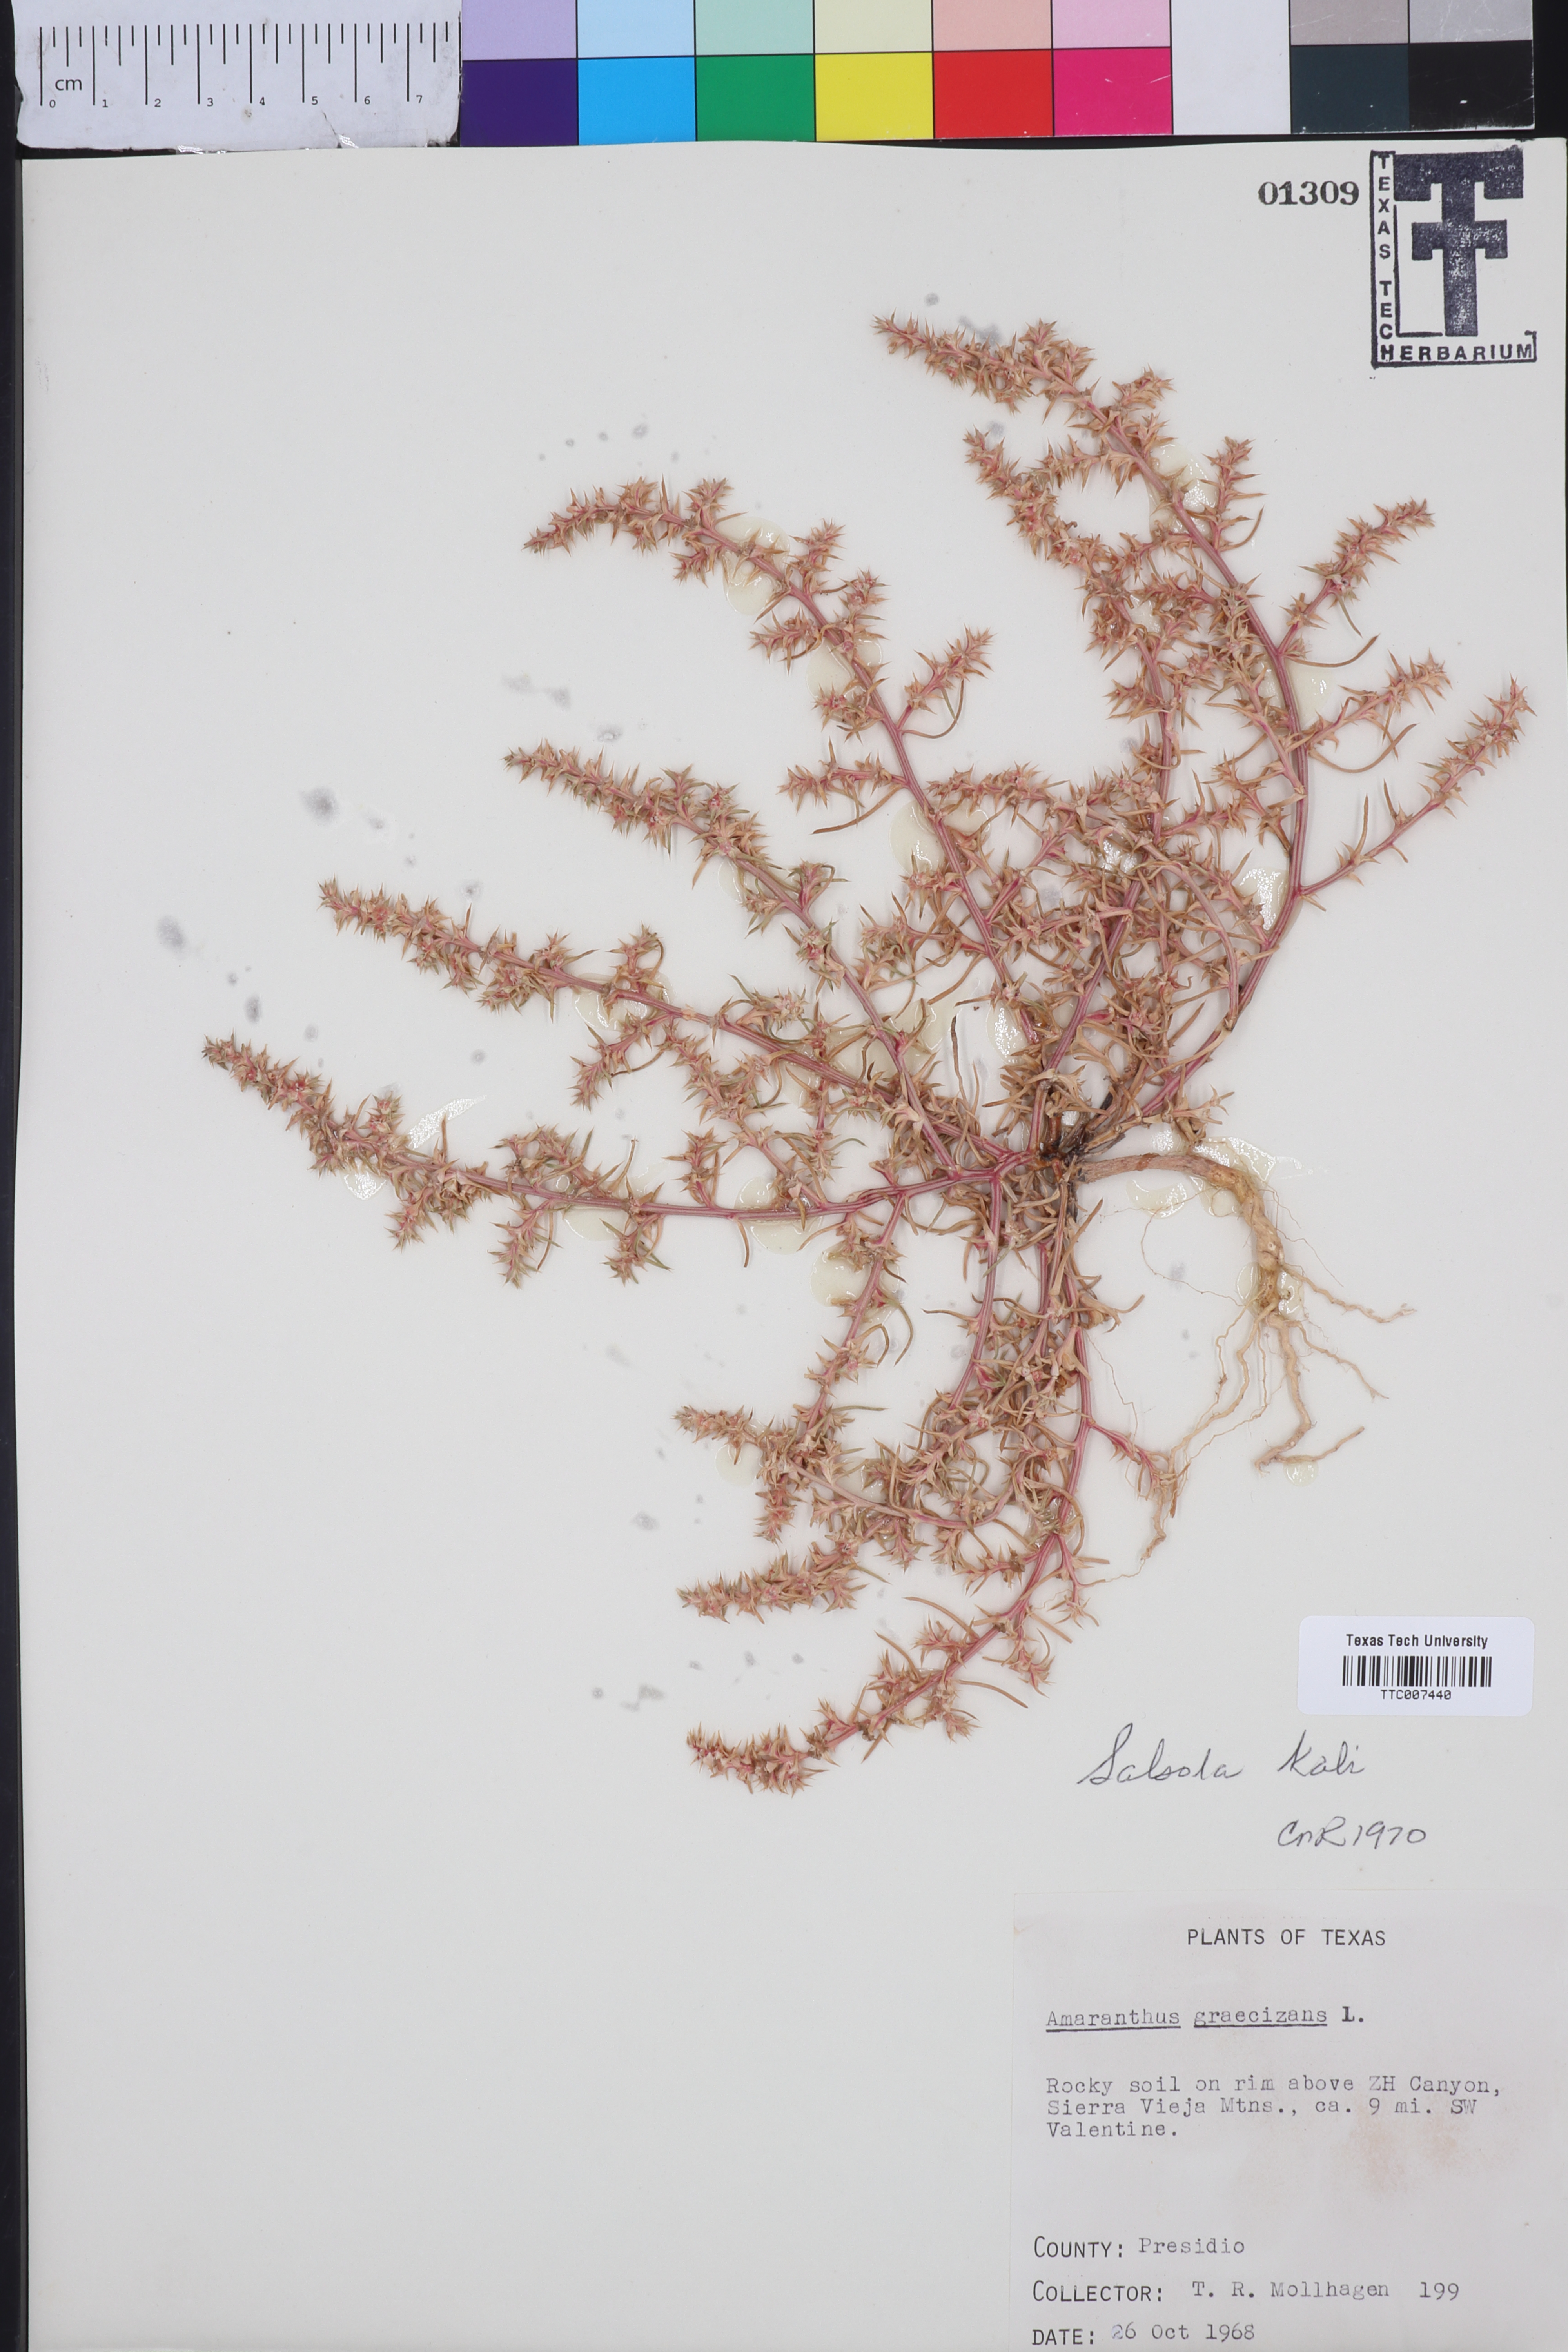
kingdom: Plantae
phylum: Tracheophyta
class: Magnoliopsida
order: Caryophyllales
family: Amaranthaceae
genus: Salsola
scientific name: Salsola kali
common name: Saltwort
